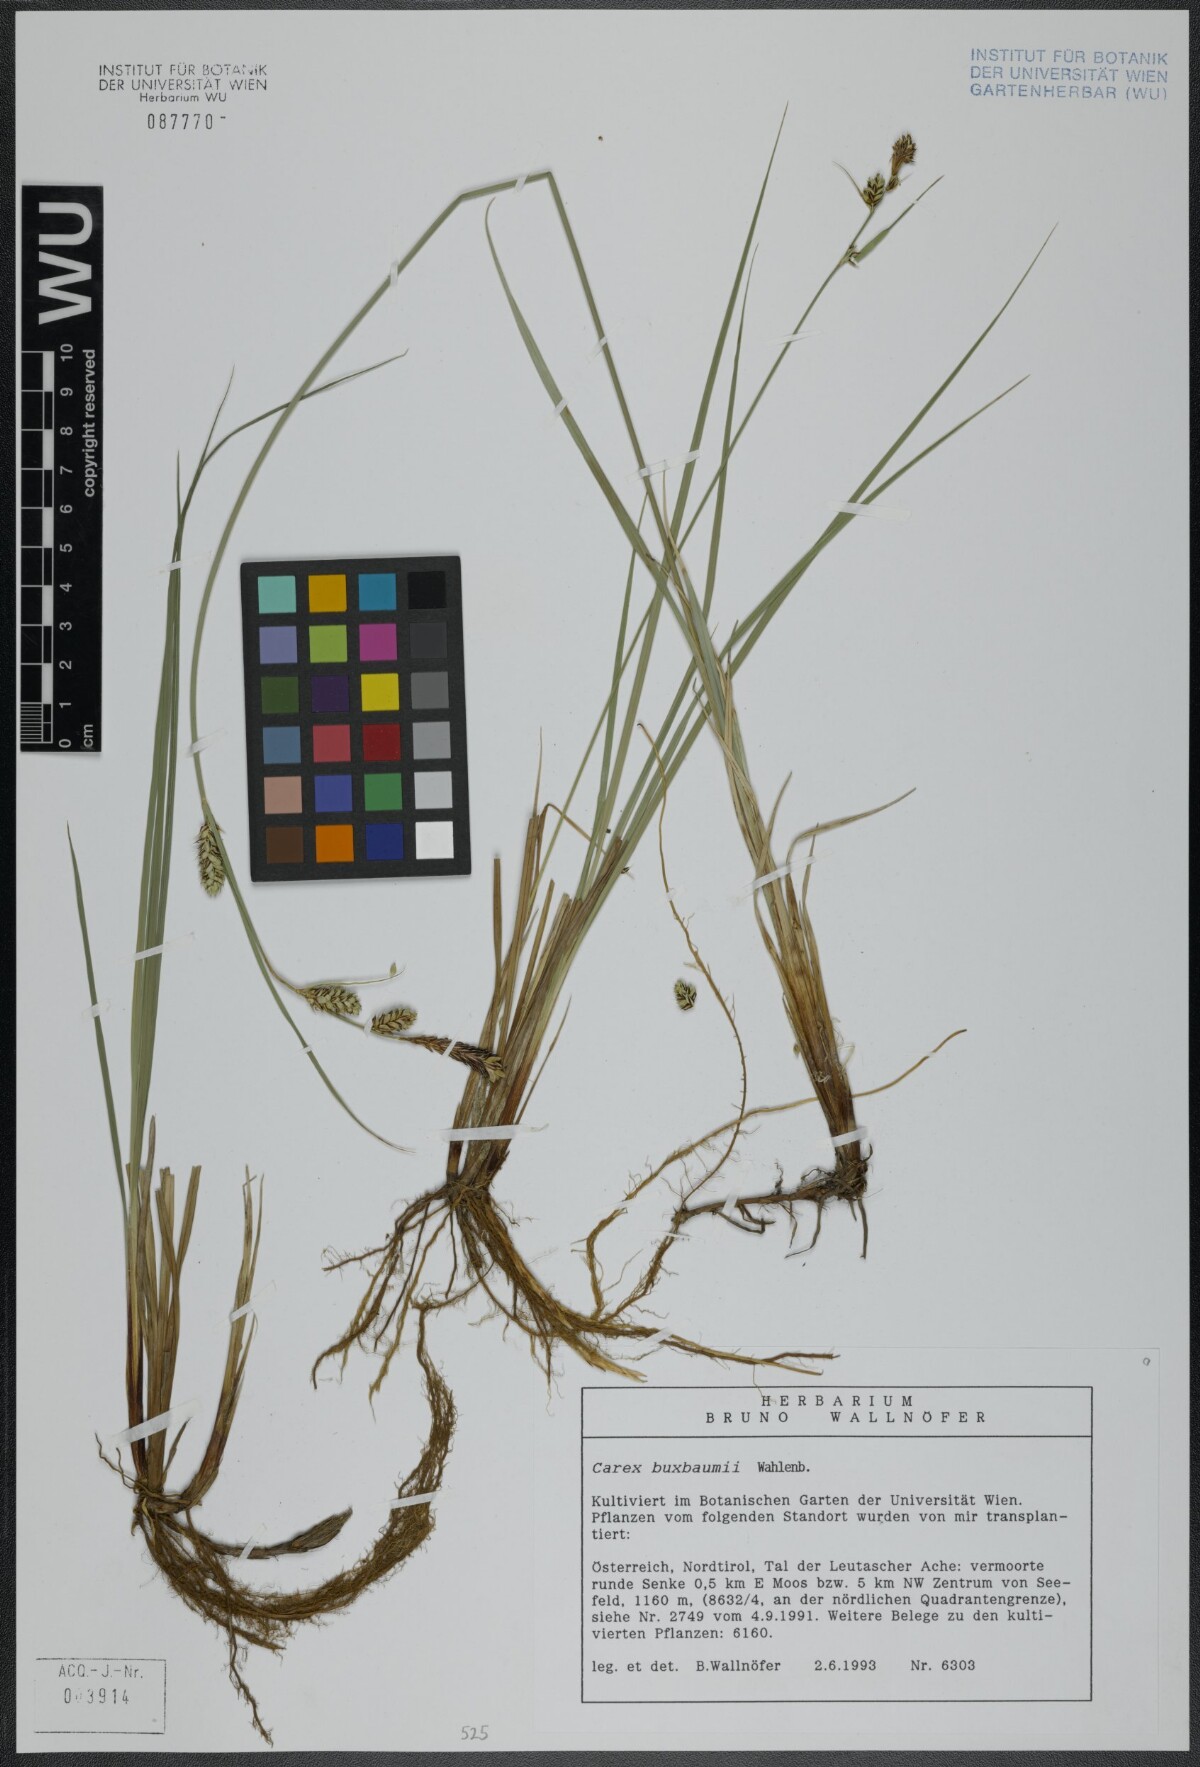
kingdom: Plantae
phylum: Tracheophyta
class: Liliopsida
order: Poales
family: Cyperaceae
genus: Carex
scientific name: Carex buxbaumii
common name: Club sedge
